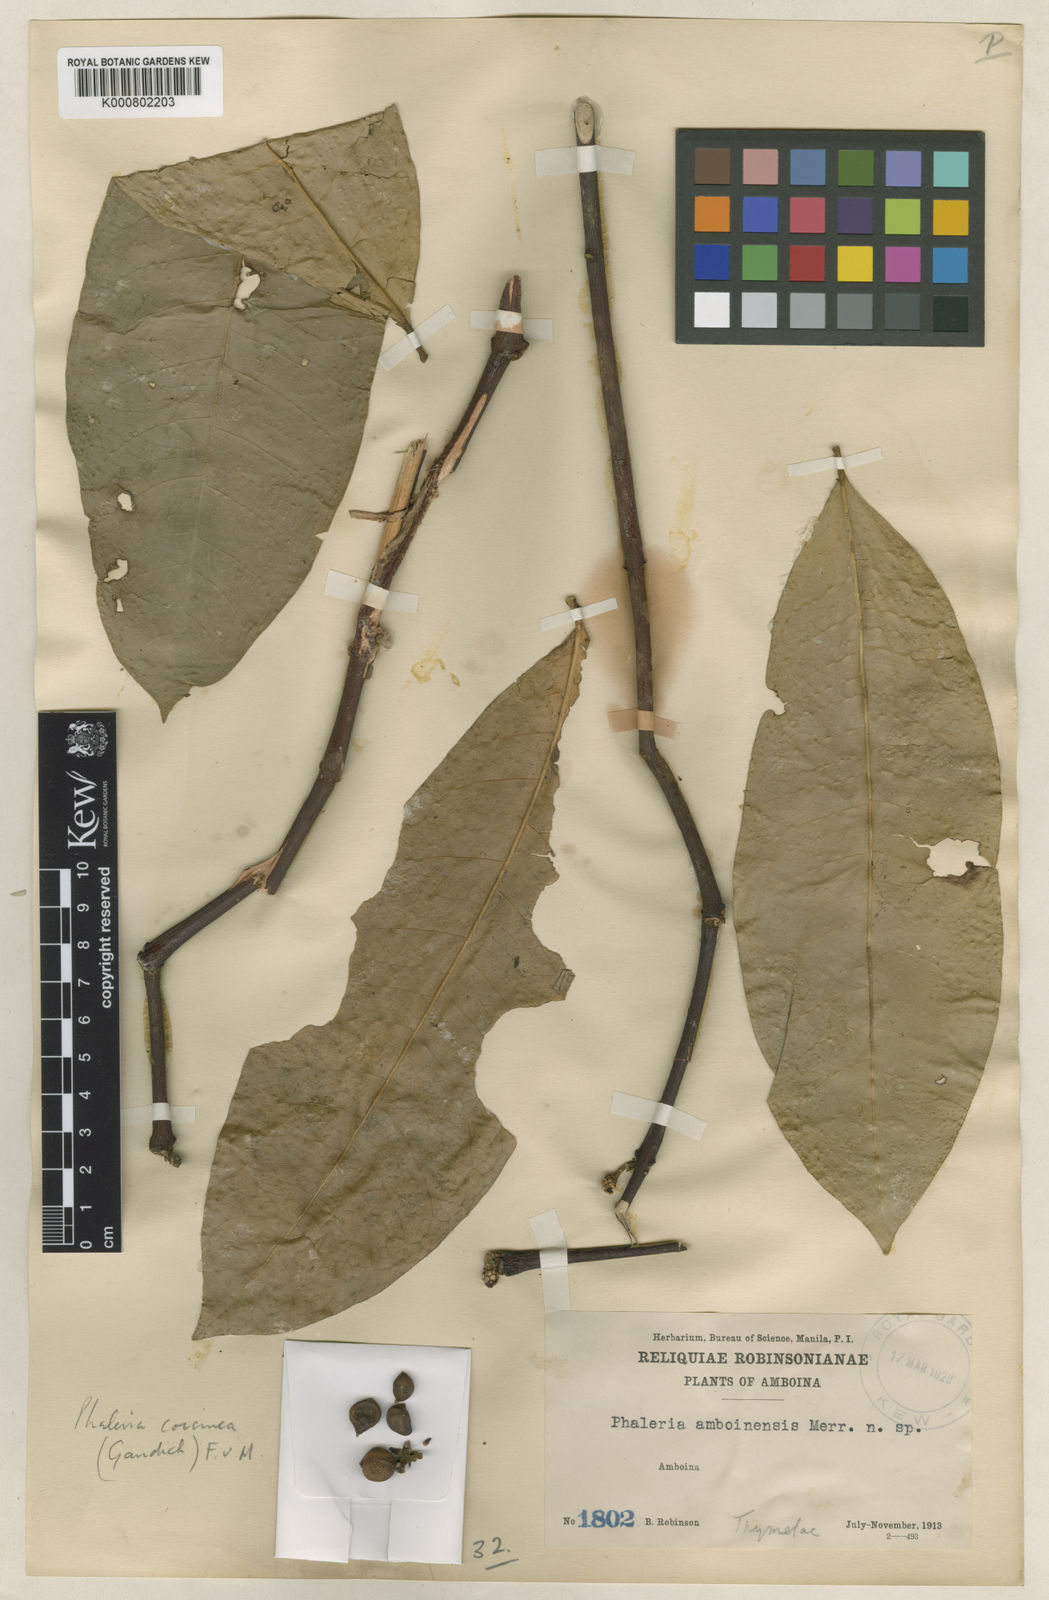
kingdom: Plantae
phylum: Tracheophyta
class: Magnoliopsida
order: Malvales
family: Thymelaeaceae
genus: Phaleria
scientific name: Phaleria coccinea
